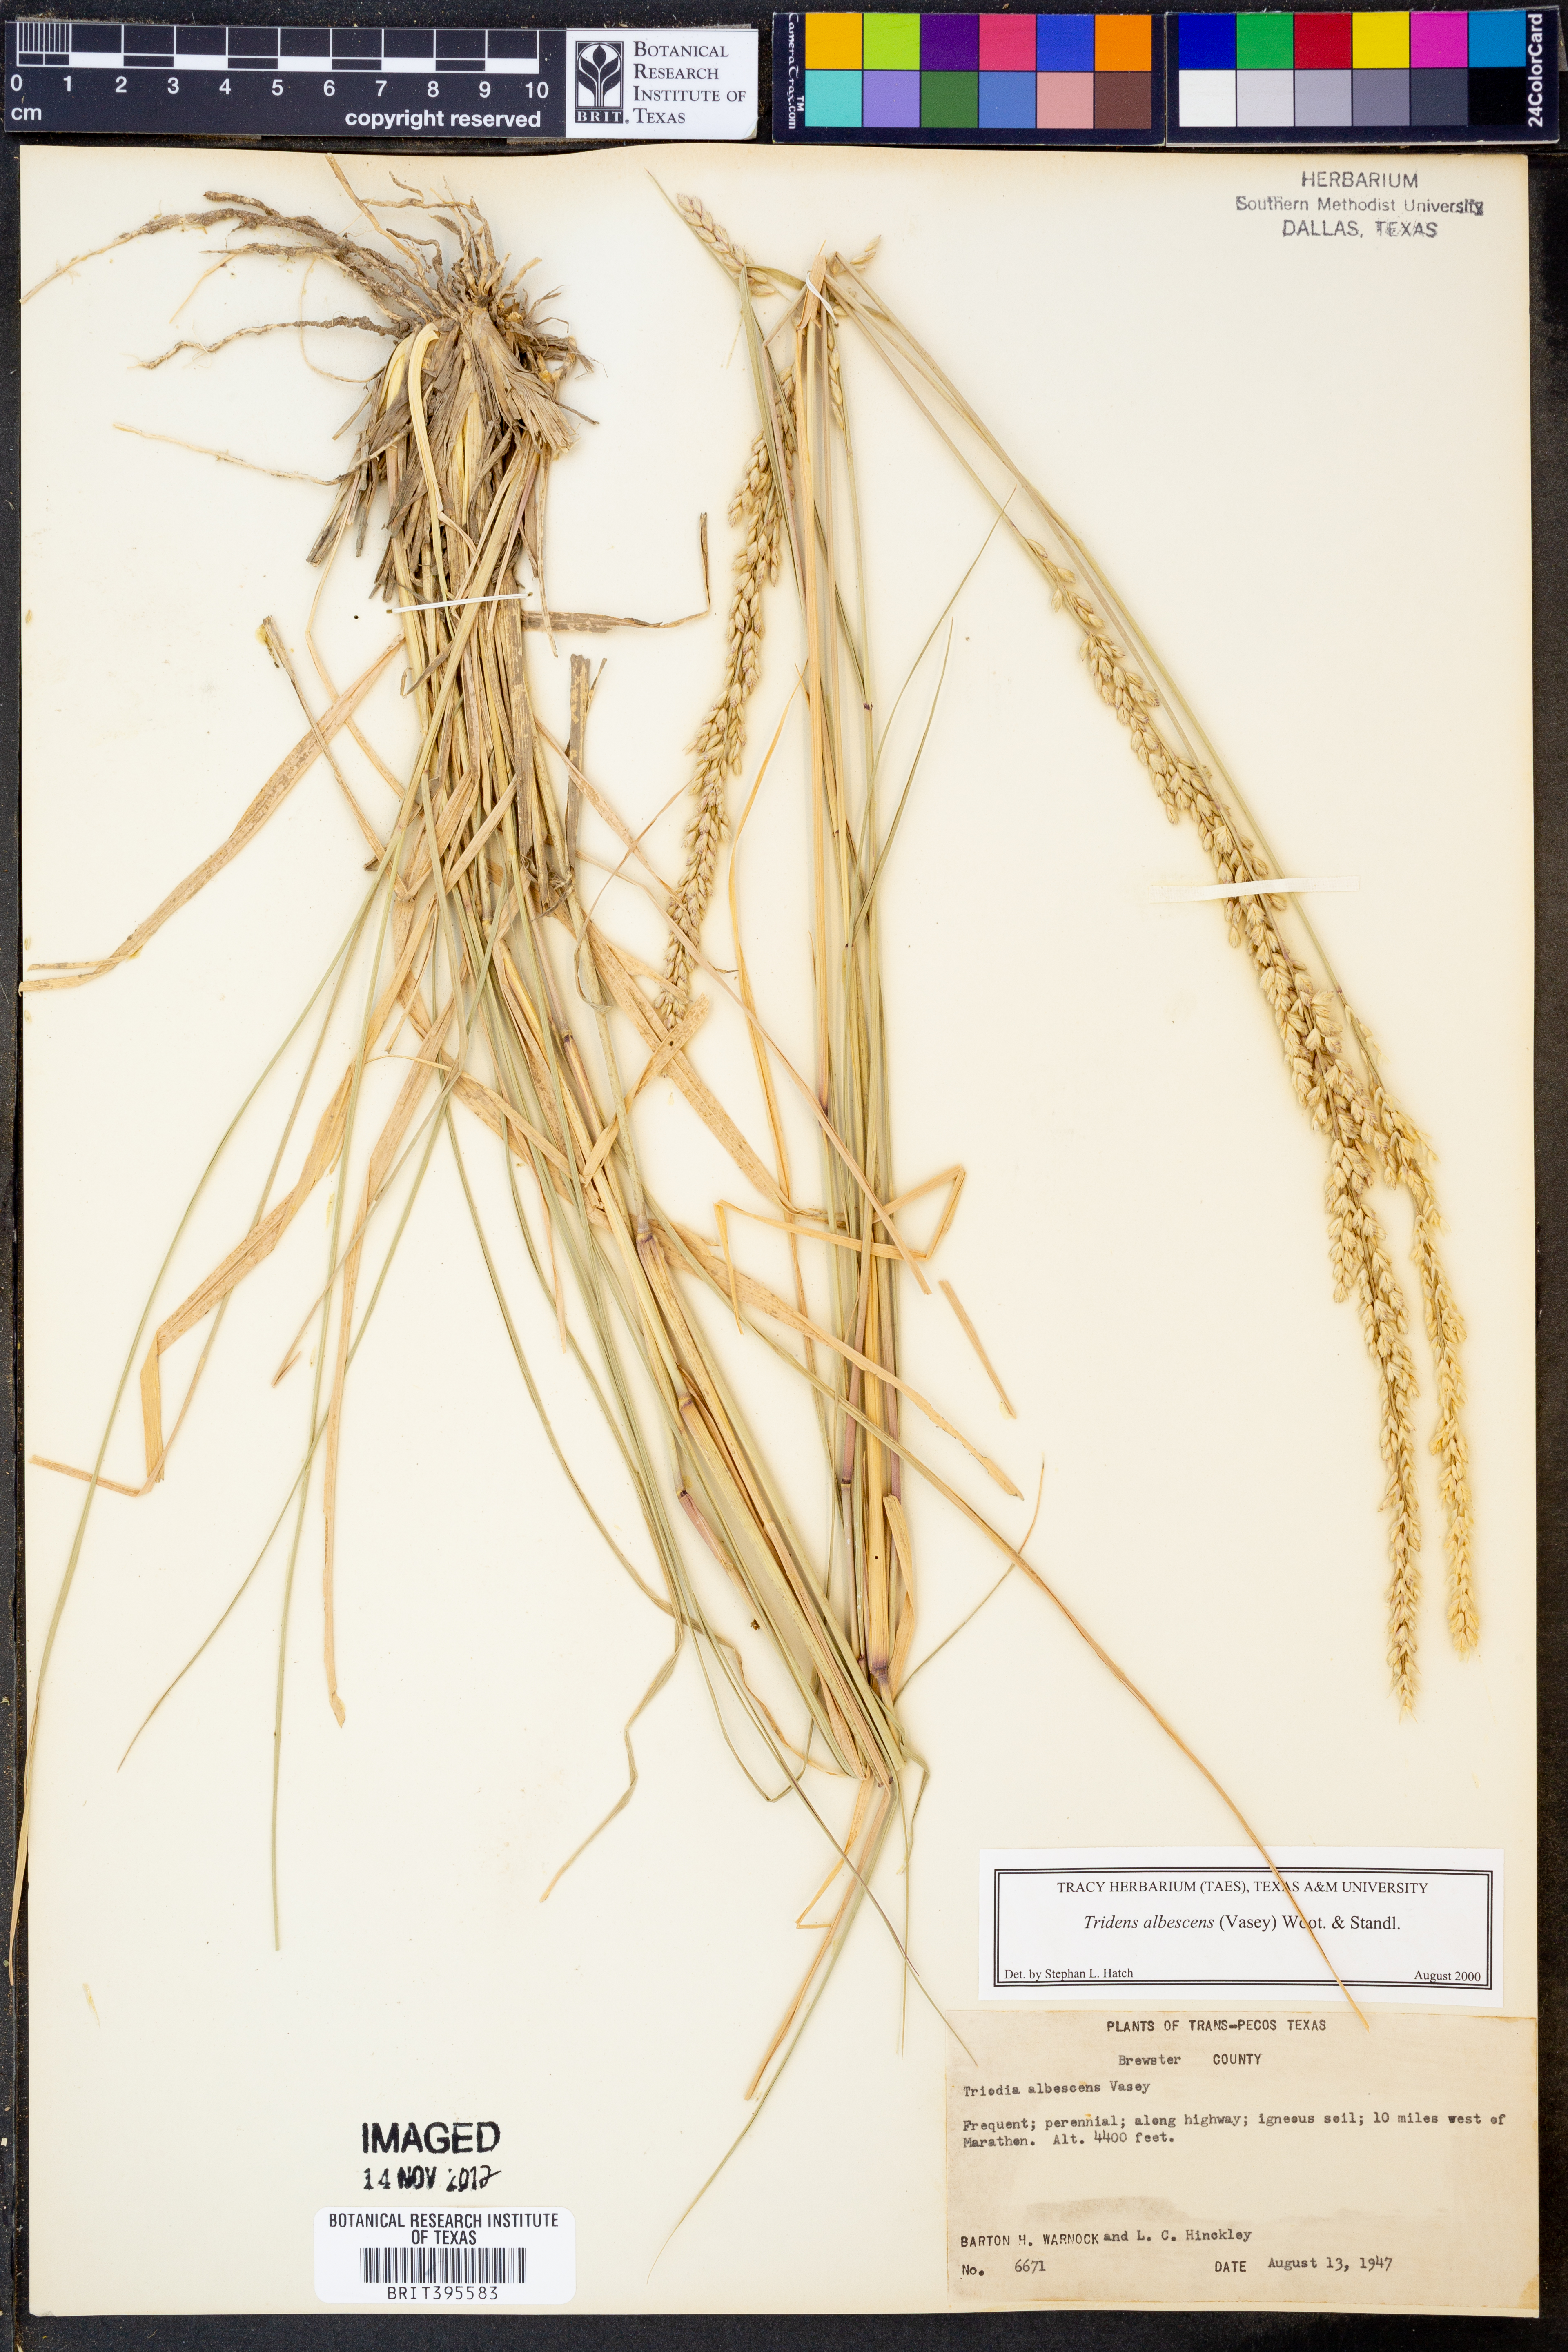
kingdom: Plantae
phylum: Tracheophyta
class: Liliopsida
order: Poales
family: Poaceae
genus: Tridens
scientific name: Tridens albescens
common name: White tridens
